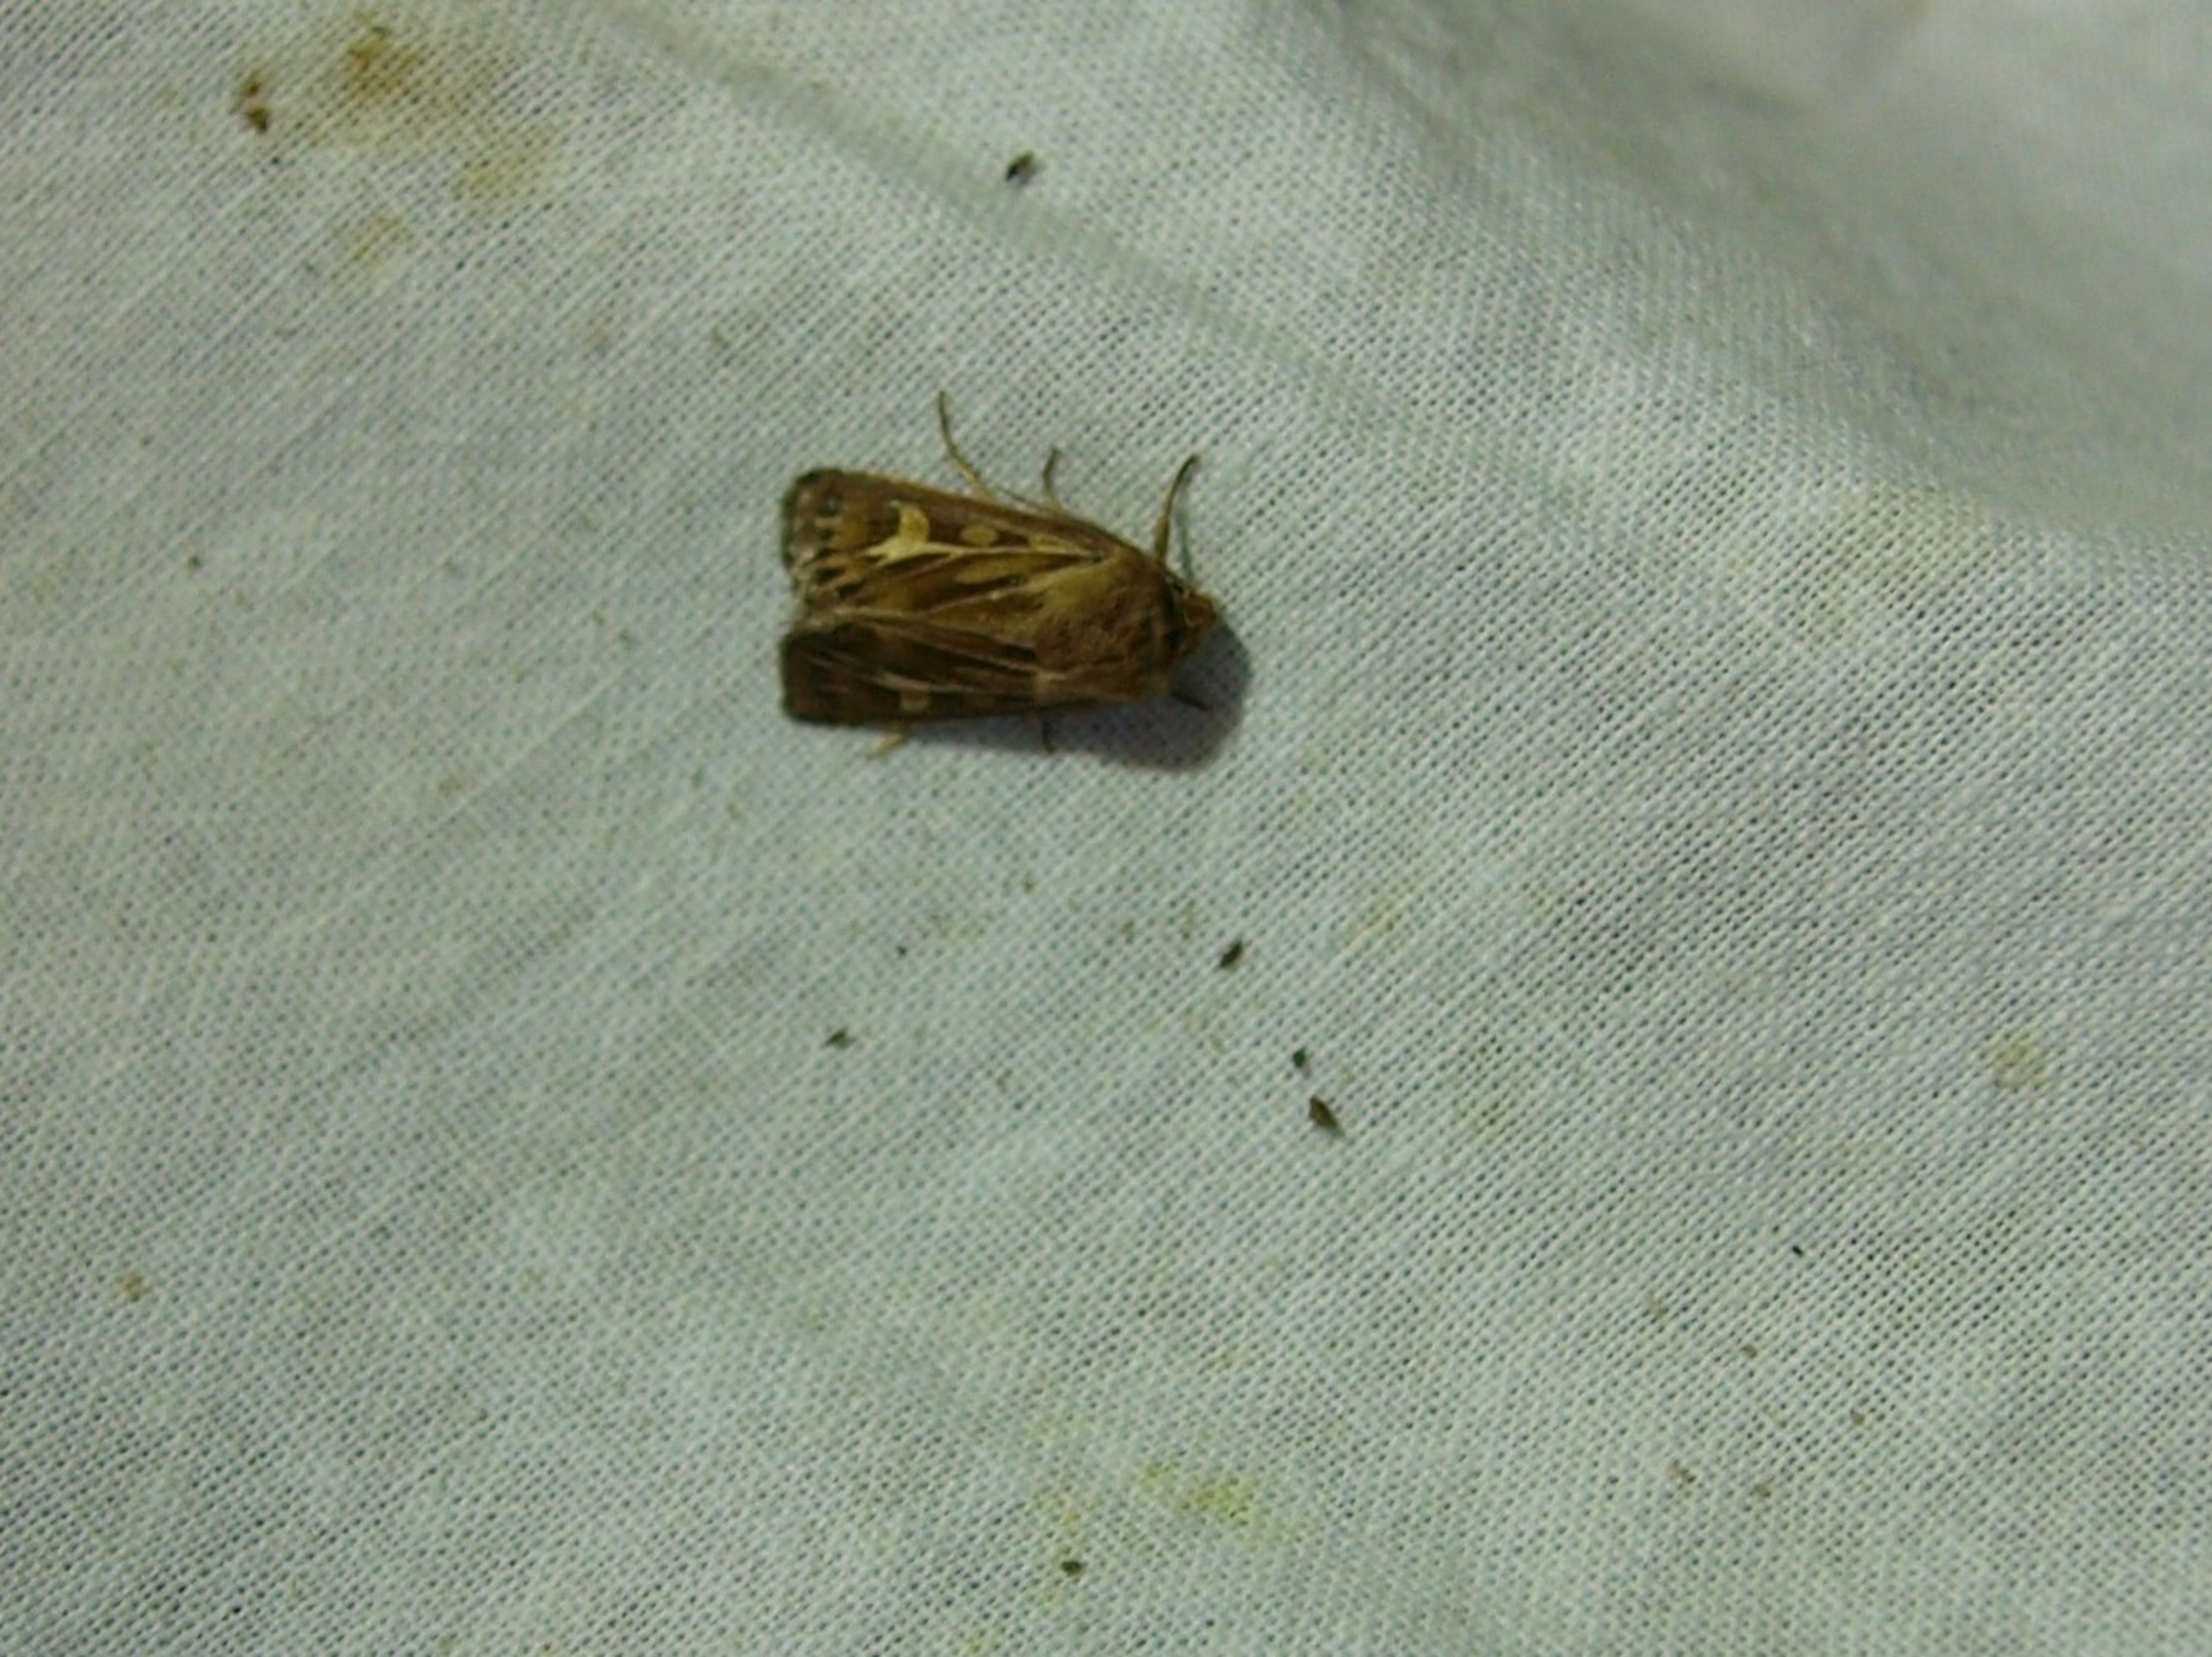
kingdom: Animalia
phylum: Arthropoda
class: Insecta
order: Lepidoptera
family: Noctuidae
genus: Cerapteryx
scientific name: Cerapteryx graminis
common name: Mosebunkeugle
